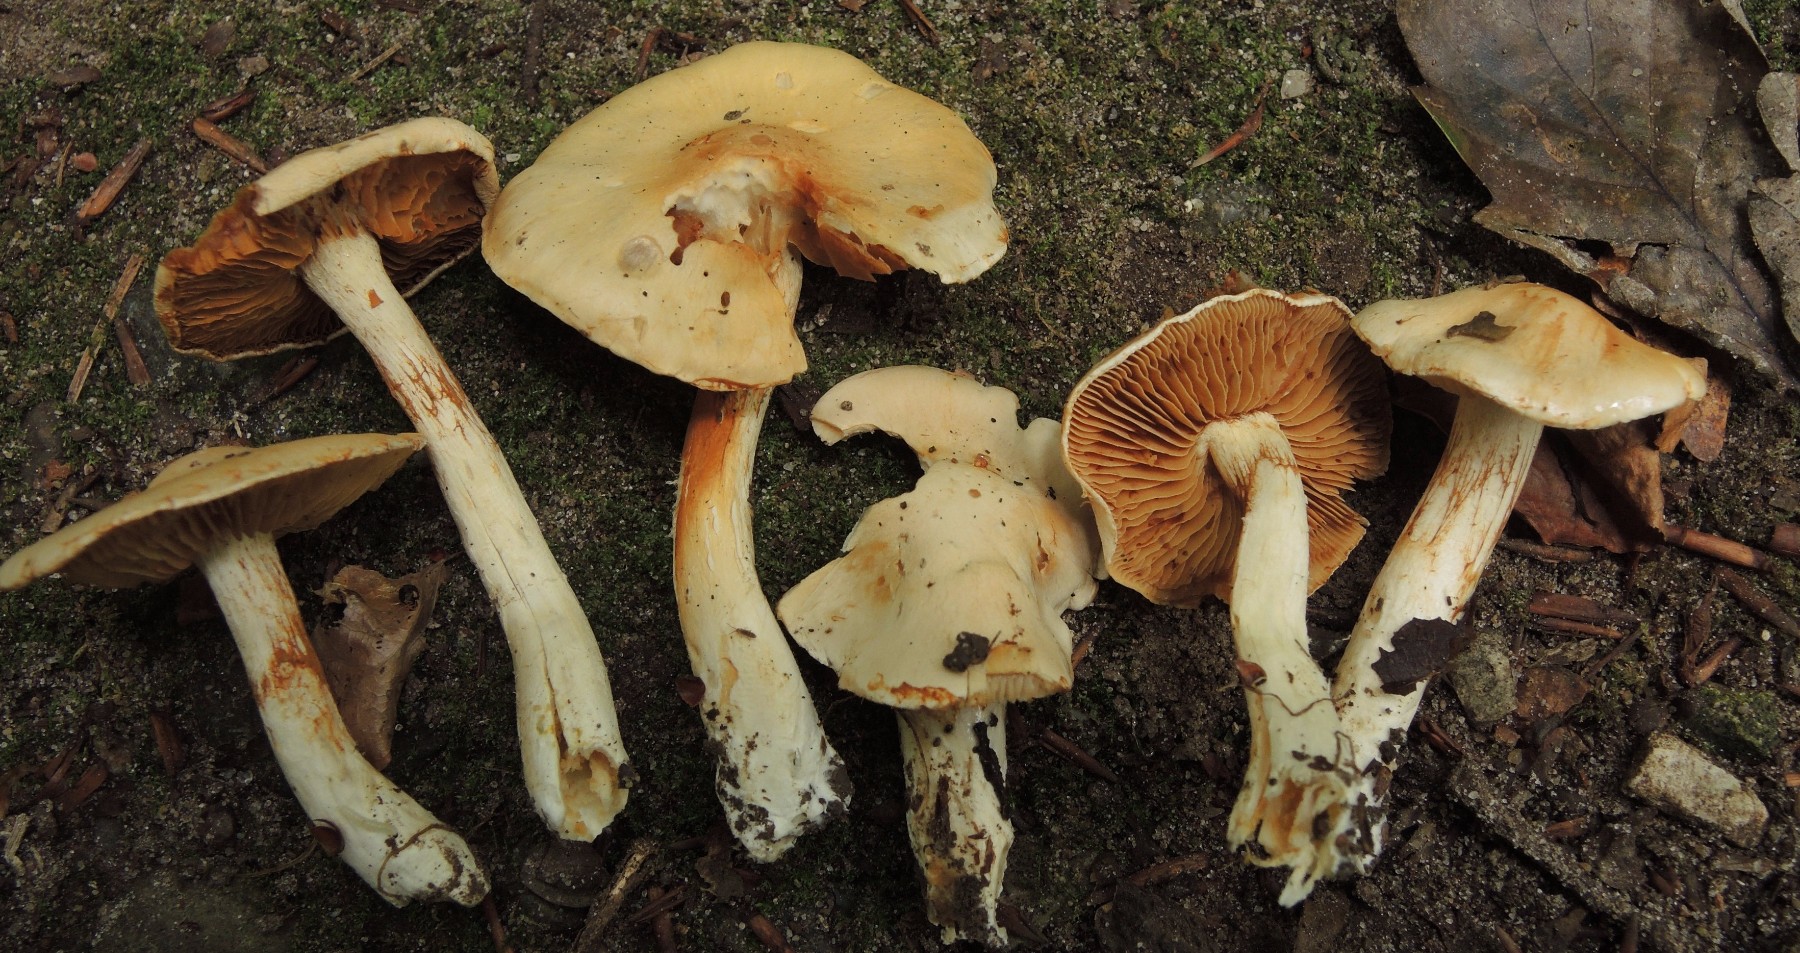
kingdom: Fungi
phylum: Basidiomycota
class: Agaricomycetes
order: Agaricales
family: Cortinariaceae
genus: Thaxterogaster
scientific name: Thaxterogaster leucoluteolus
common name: isabella slørhat
